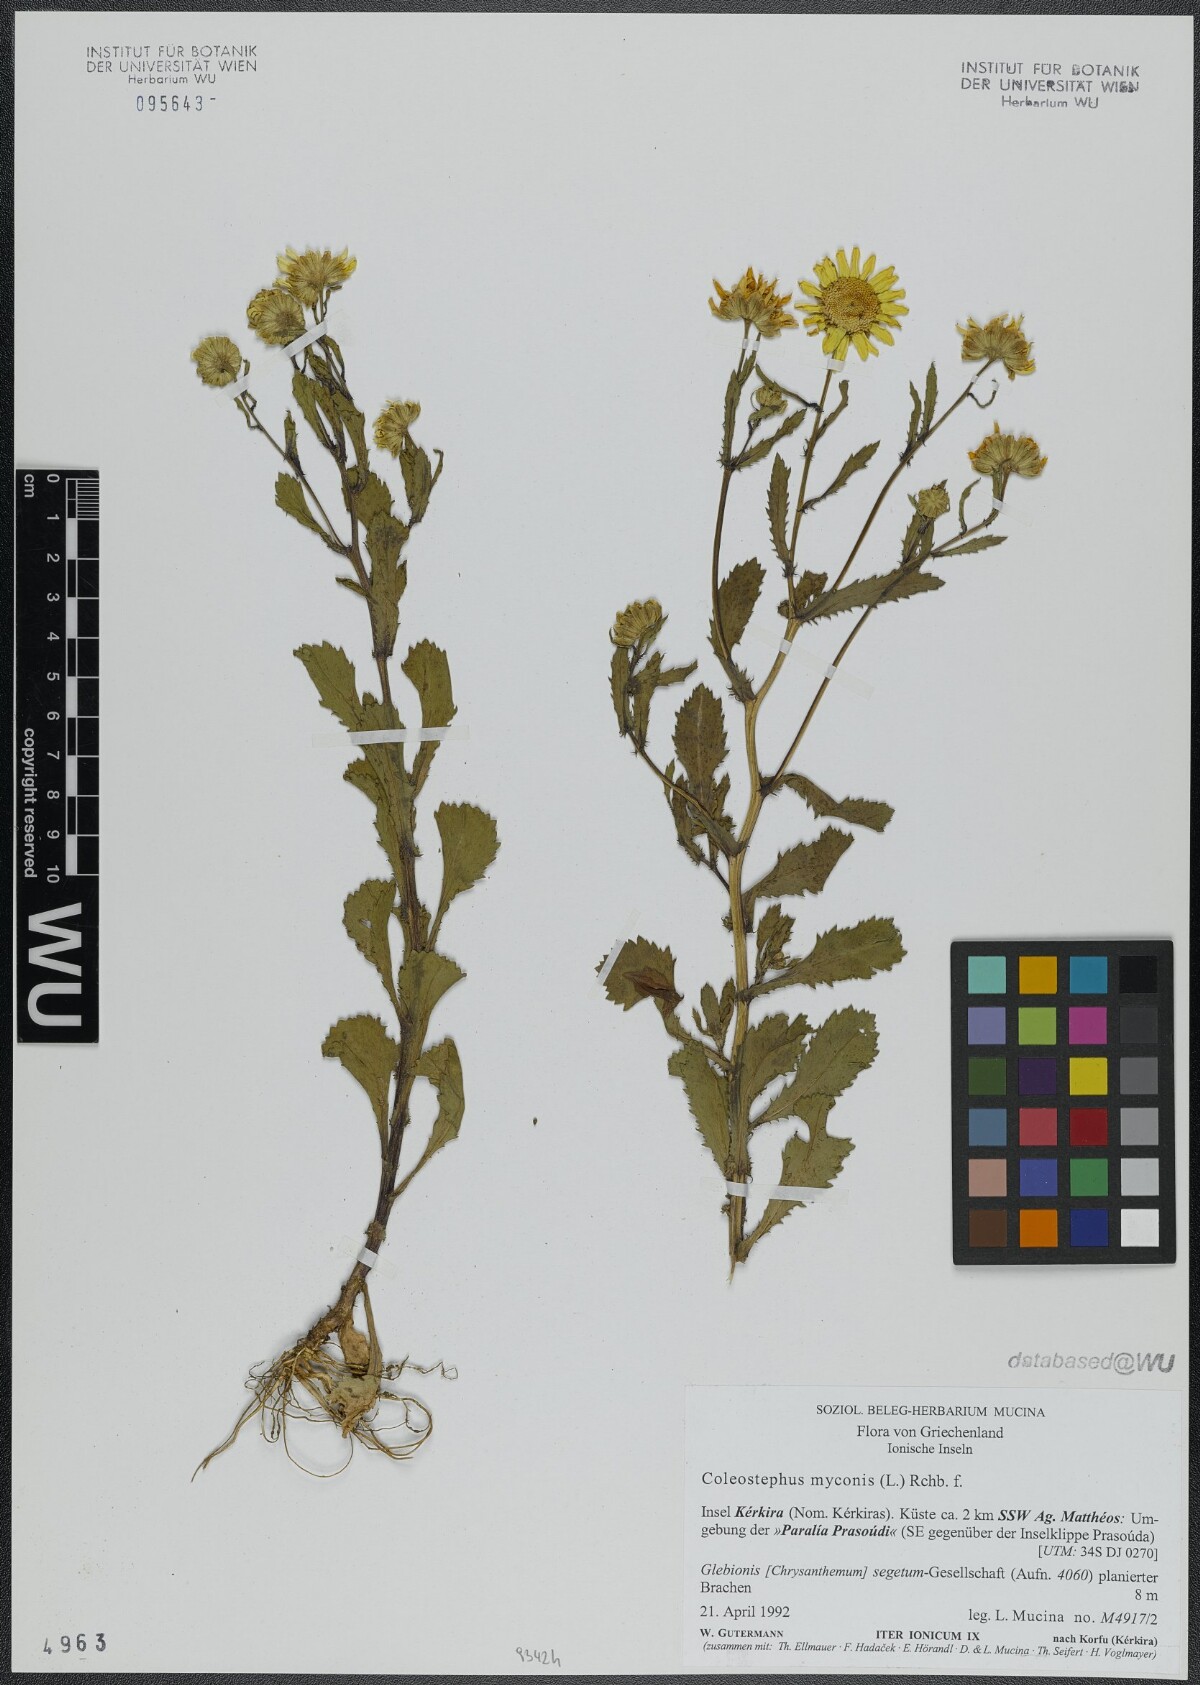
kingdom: Plantae
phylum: Tracheophyta
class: Magnoliopsida
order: Asterales
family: Asteraceae
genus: Coleostephus
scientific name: Coleostephus myconis
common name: Mediterranean marigold
